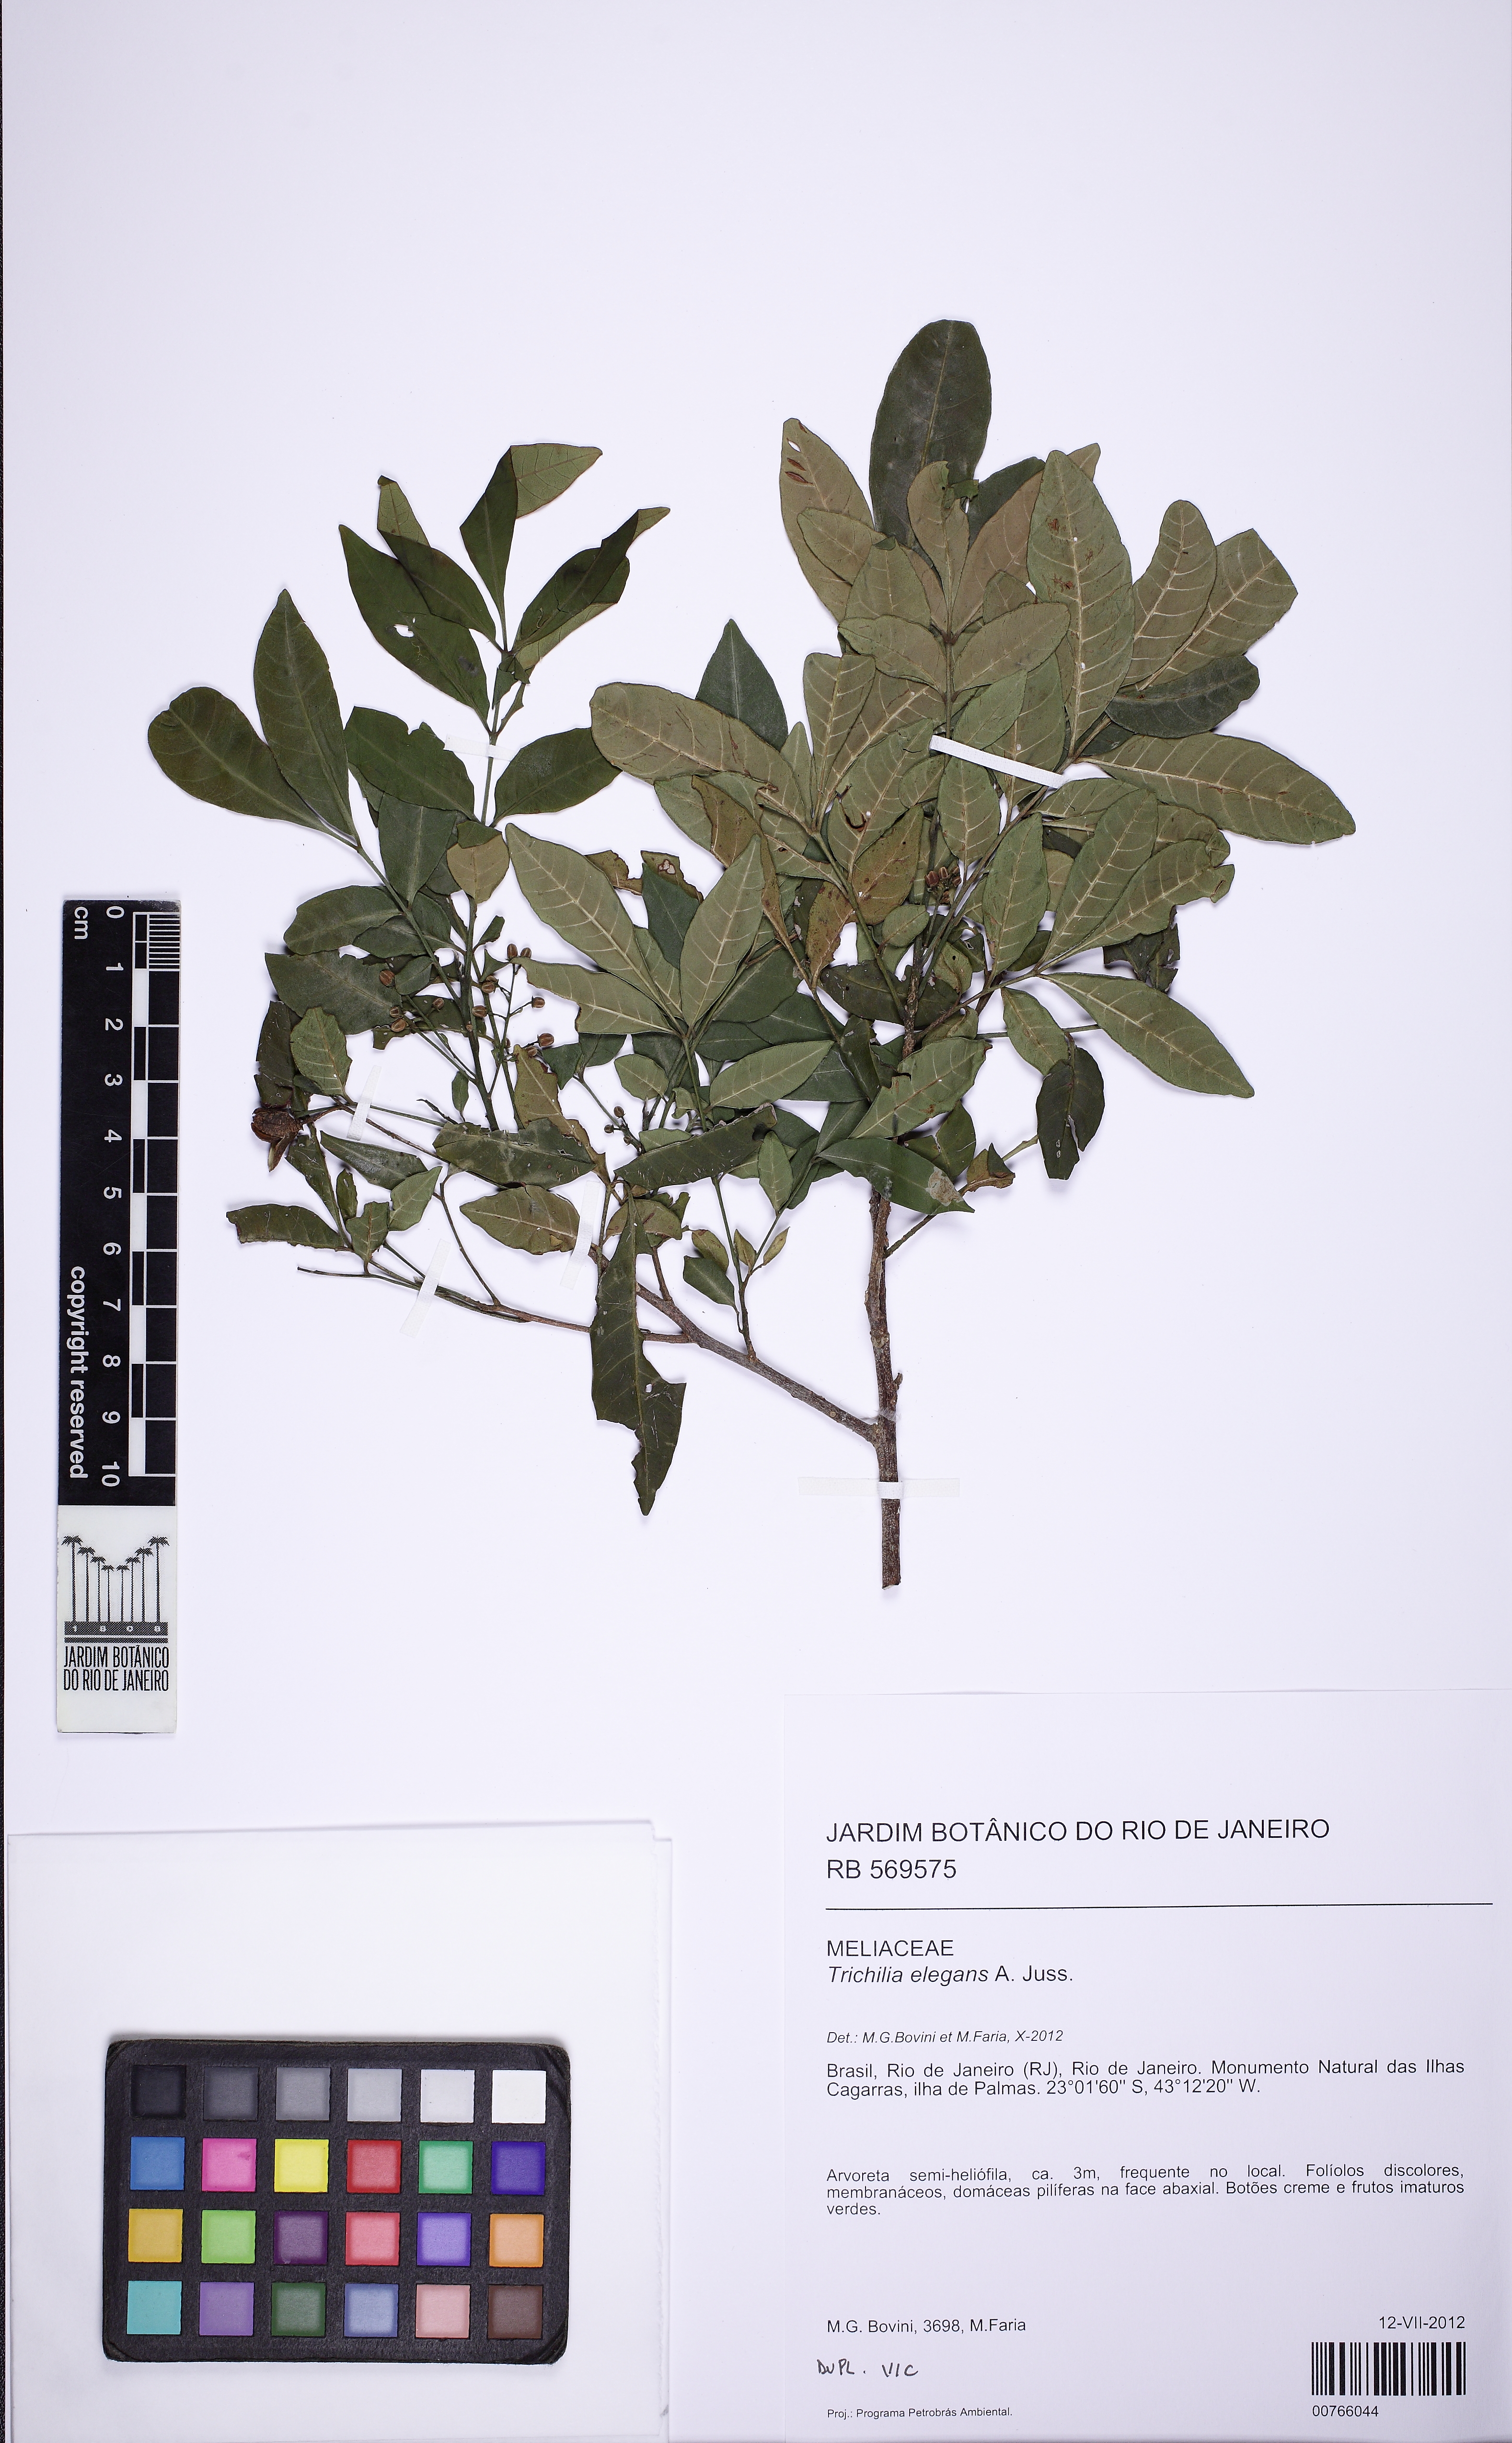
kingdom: Plantae
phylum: Tracheophyta
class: Magnoliopsida
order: Sapindales
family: Meliaceae
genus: Trichilia
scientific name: Trichilia elegans
